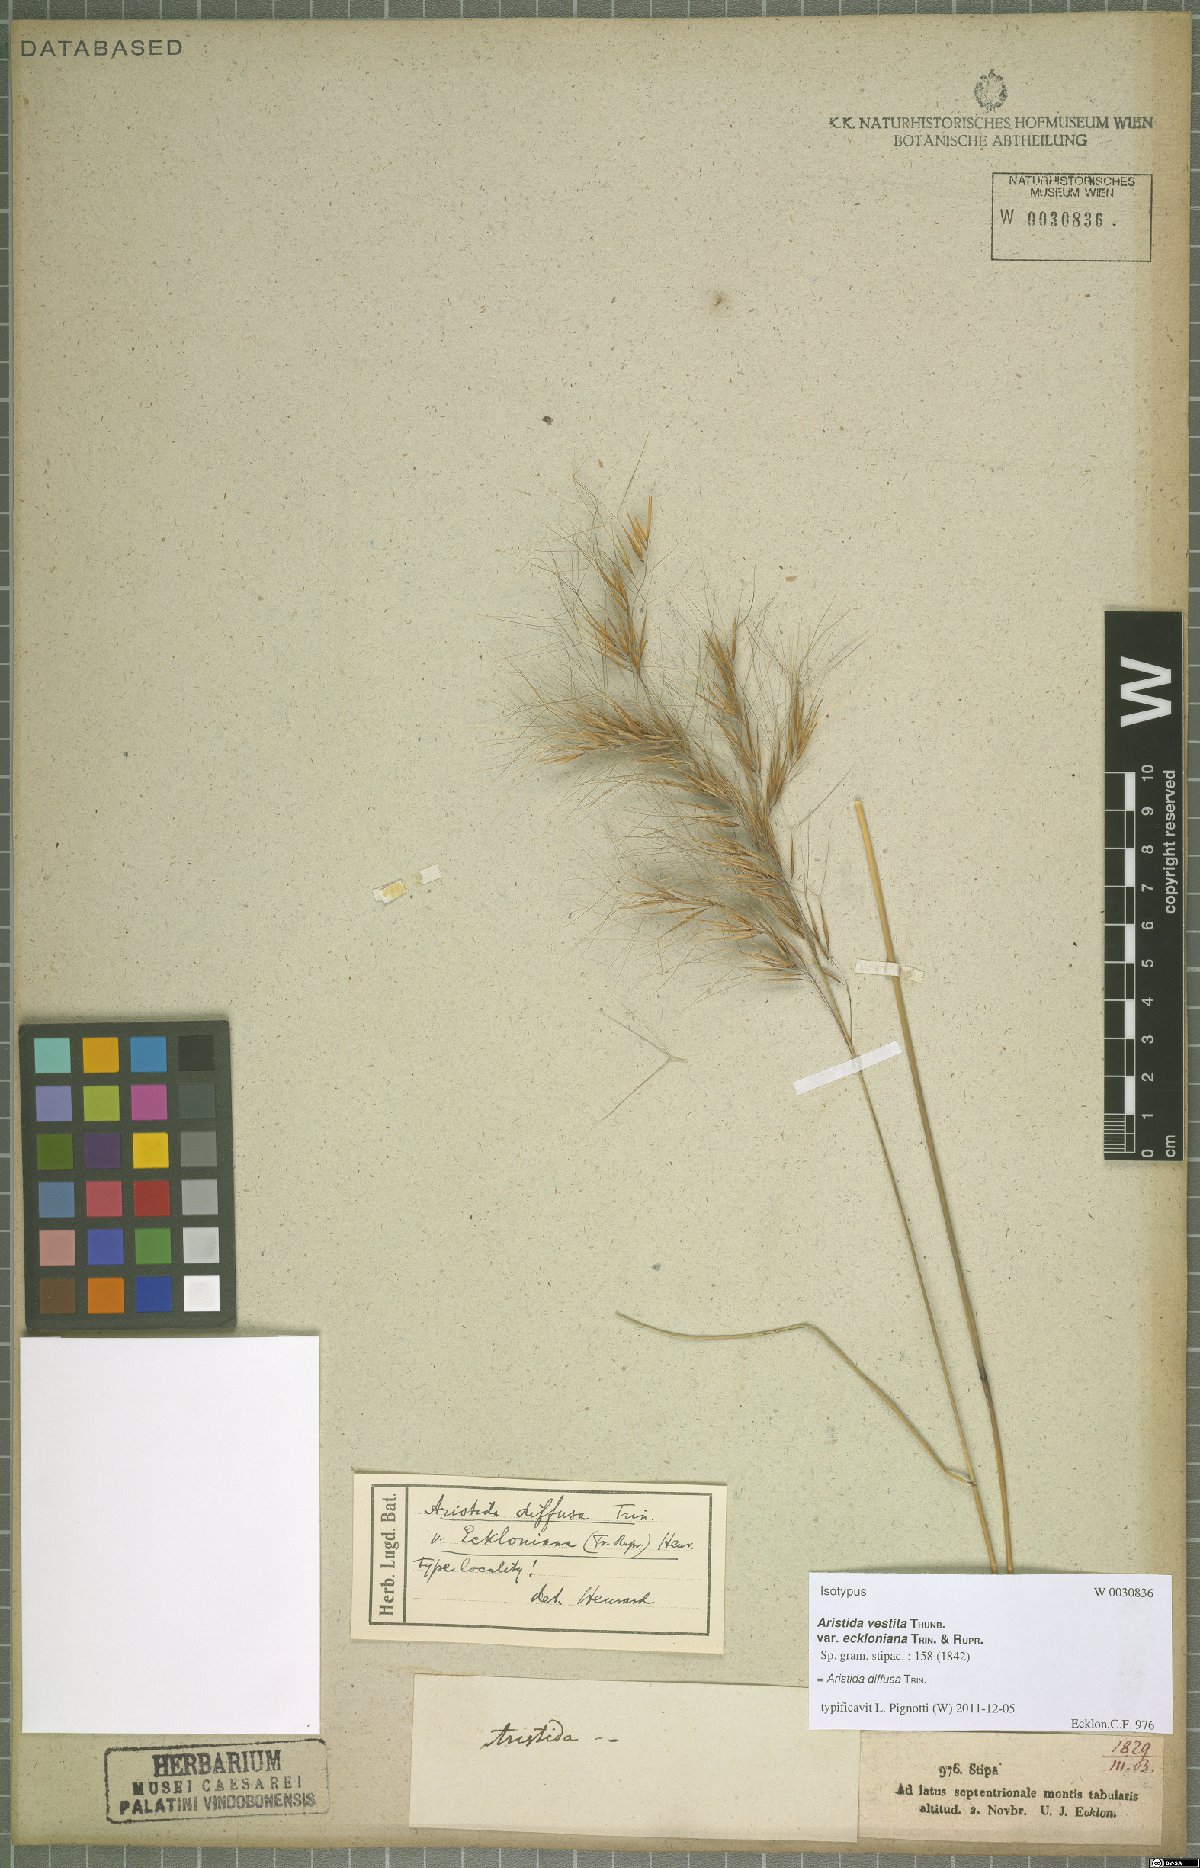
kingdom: Plantae
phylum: Tracheophyta
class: Liliopsida
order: Poales
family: Poaceae
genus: Aristida
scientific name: Aristida diffusa
